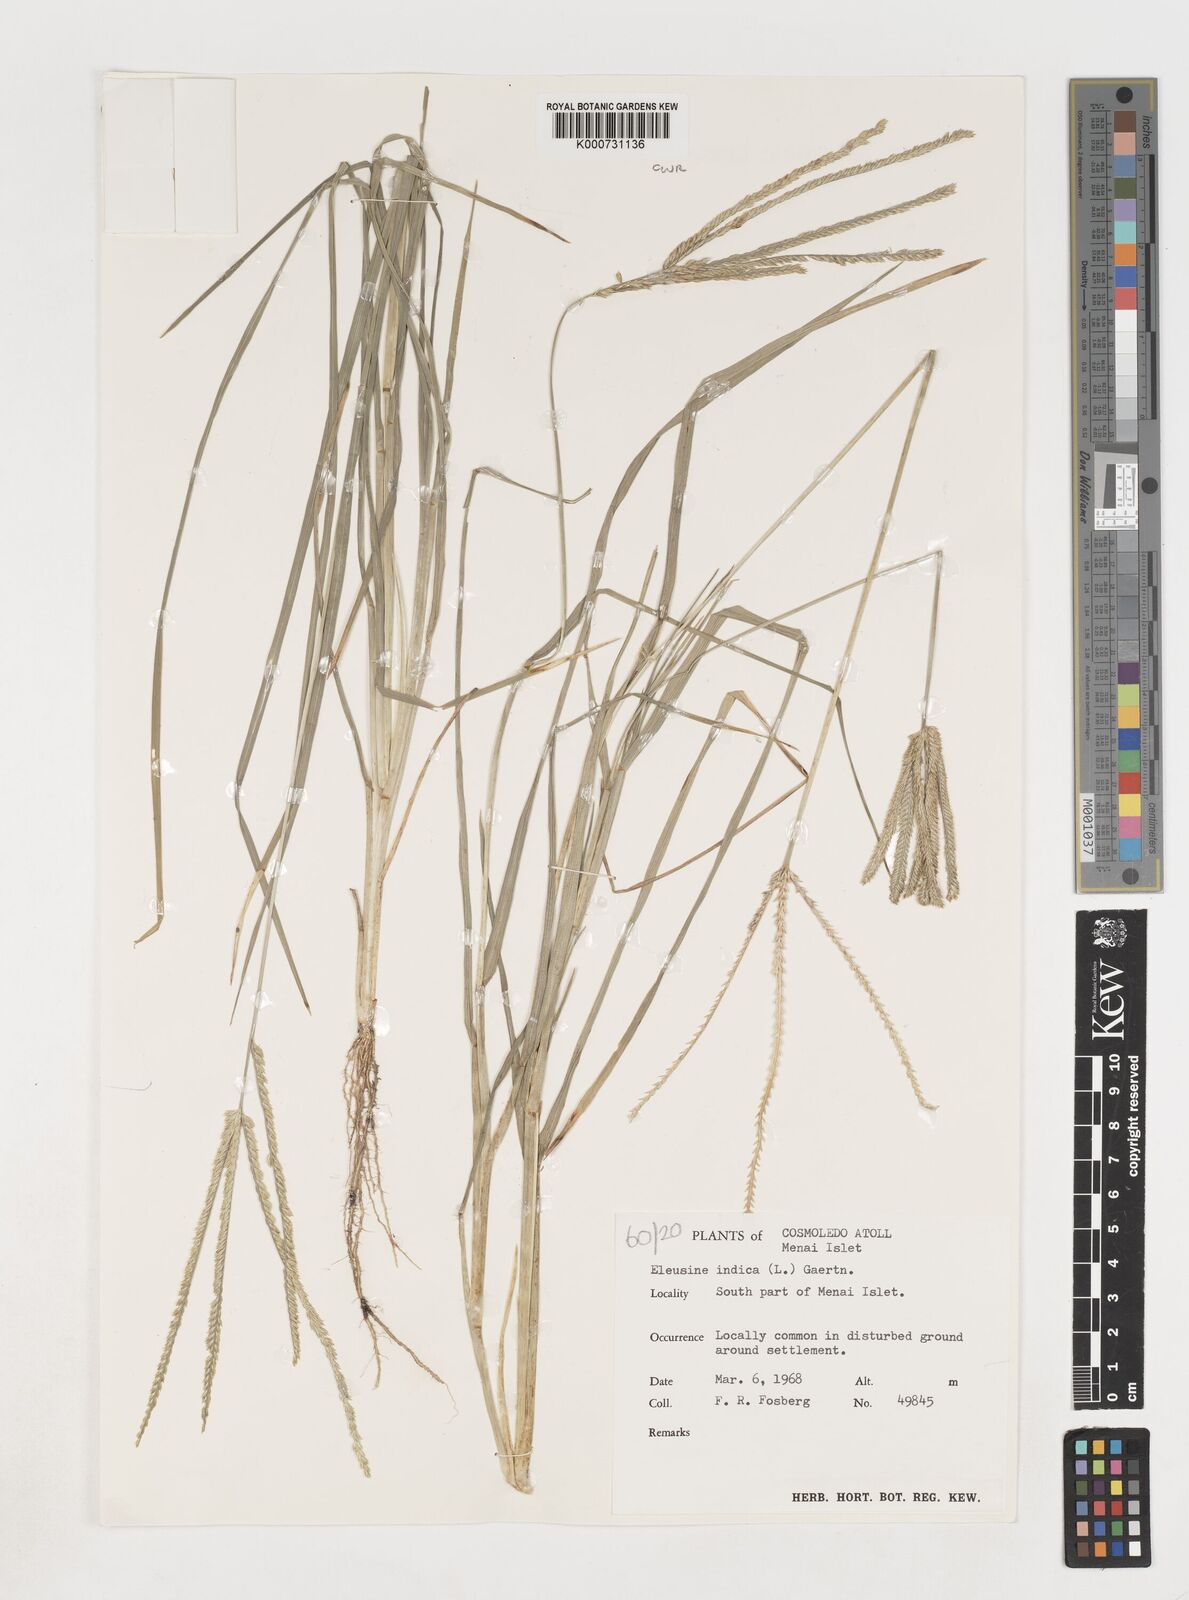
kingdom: Plantae
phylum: Tracheophyta
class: Liliopsida
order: Poales
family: Poaceae
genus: Eleusine
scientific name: Eleusine indica
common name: Yard-grass
